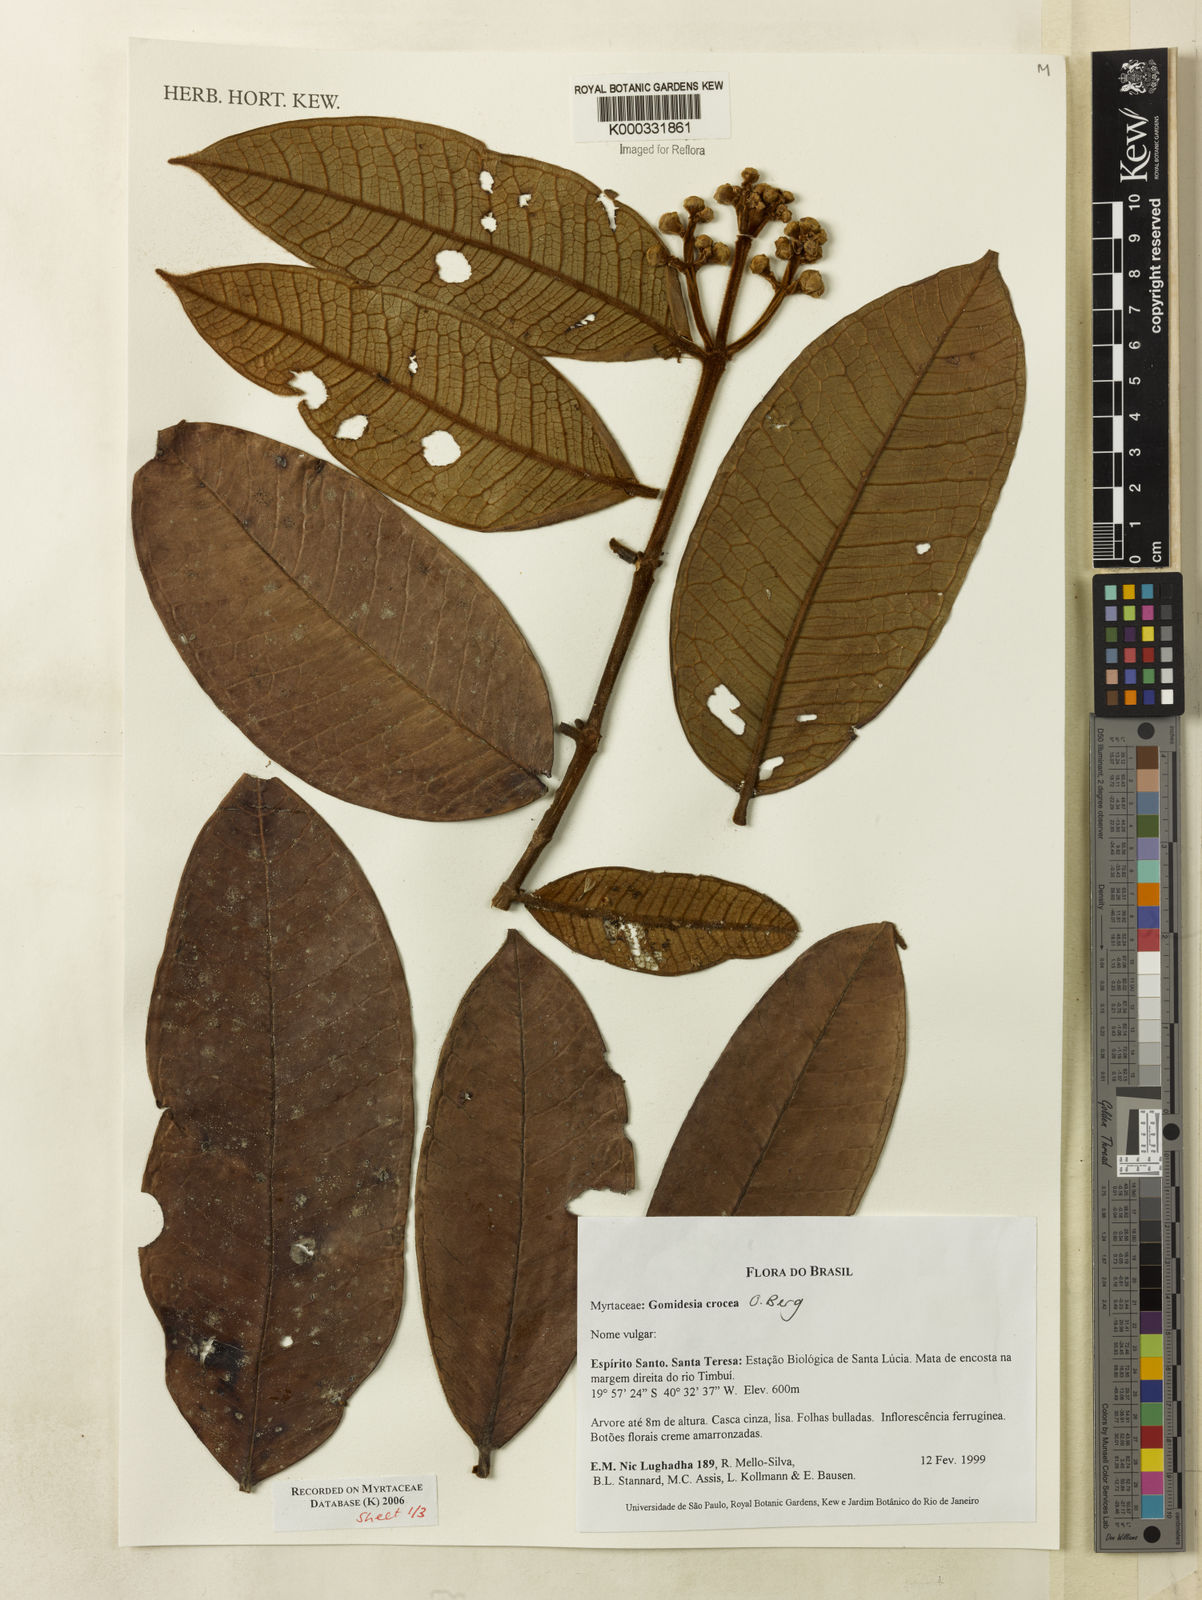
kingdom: Plantae
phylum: Tracheophyta
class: Magnoliopsida
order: Myrtales
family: Myrtaceae
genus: Myrcia
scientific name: Myrcia amplexicaulis
